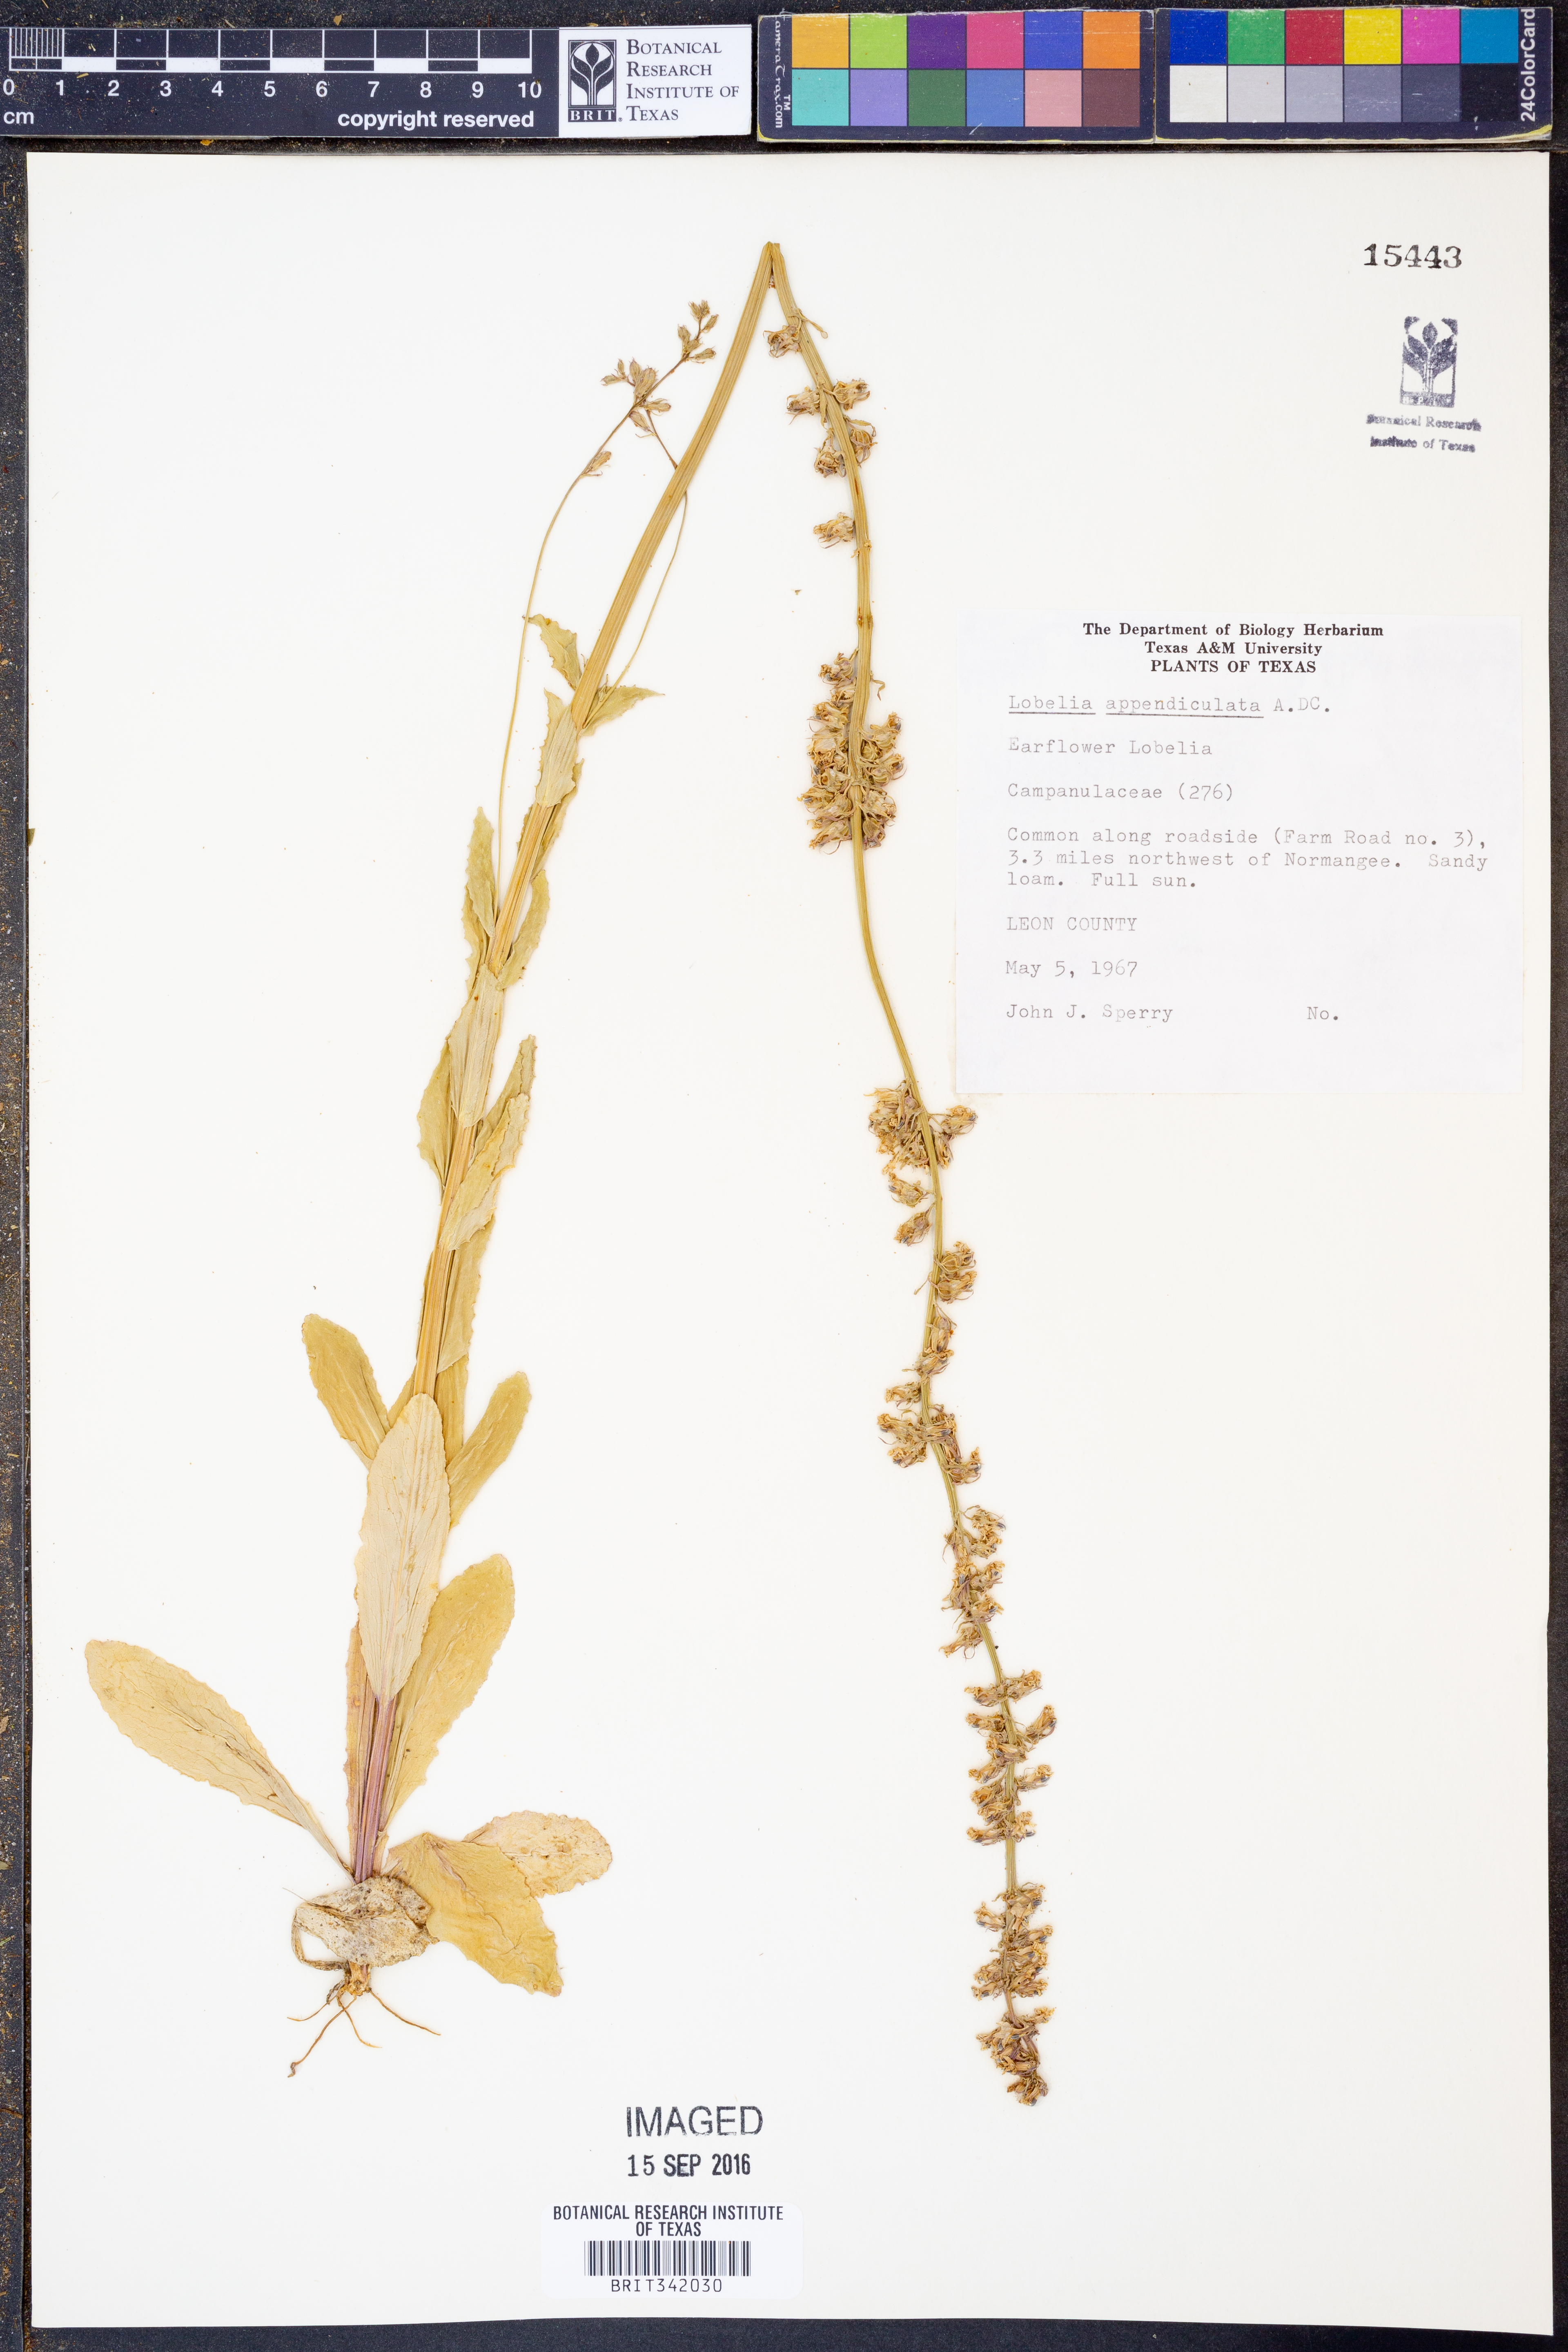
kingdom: Plantae
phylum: Tracheophyta
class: Magnoliopsida
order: Asterales
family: Campanulaceae
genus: Lobelia
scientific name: Lobelia appendiculata
